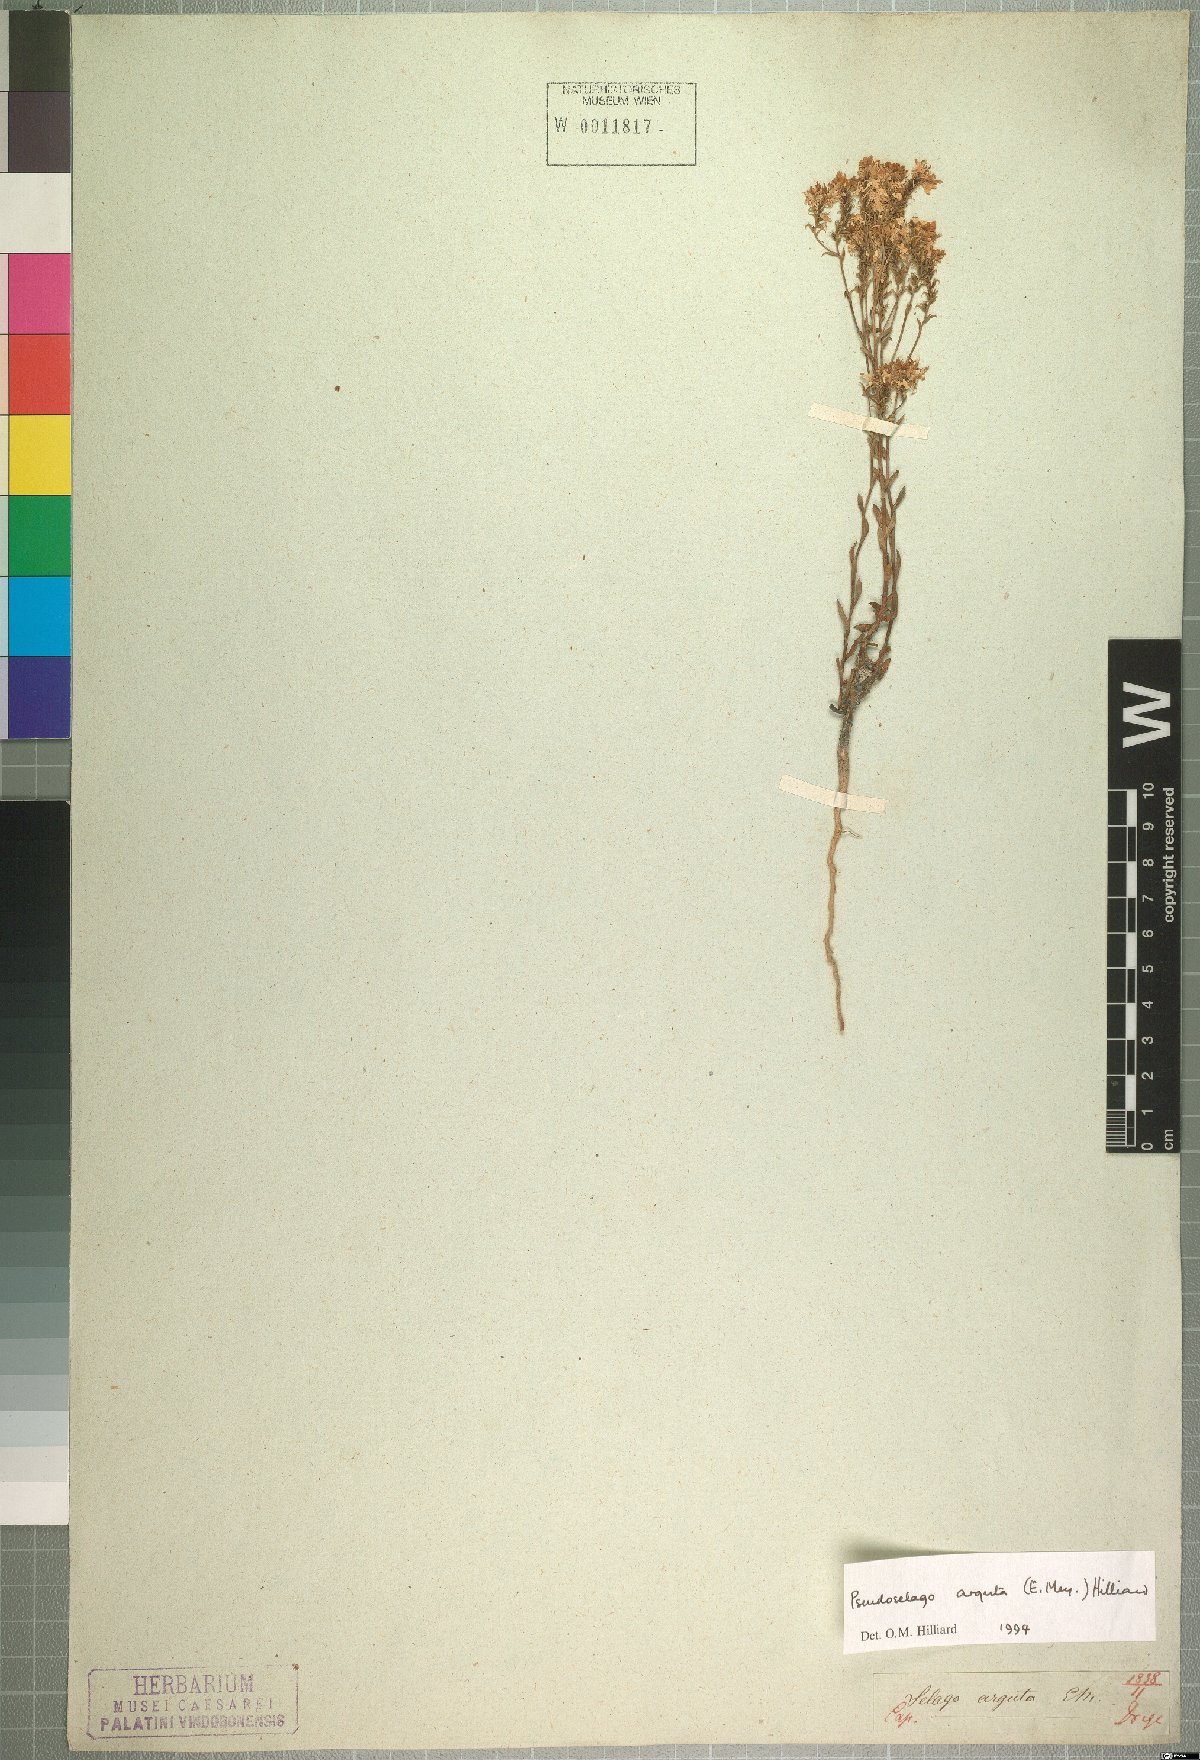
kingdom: Plantae
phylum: Tracheophyta
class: Magnoliopsida
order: Lamiales
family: Scrophulariaceae
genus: Pseudoselago
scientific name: Pseudoselago arguta
